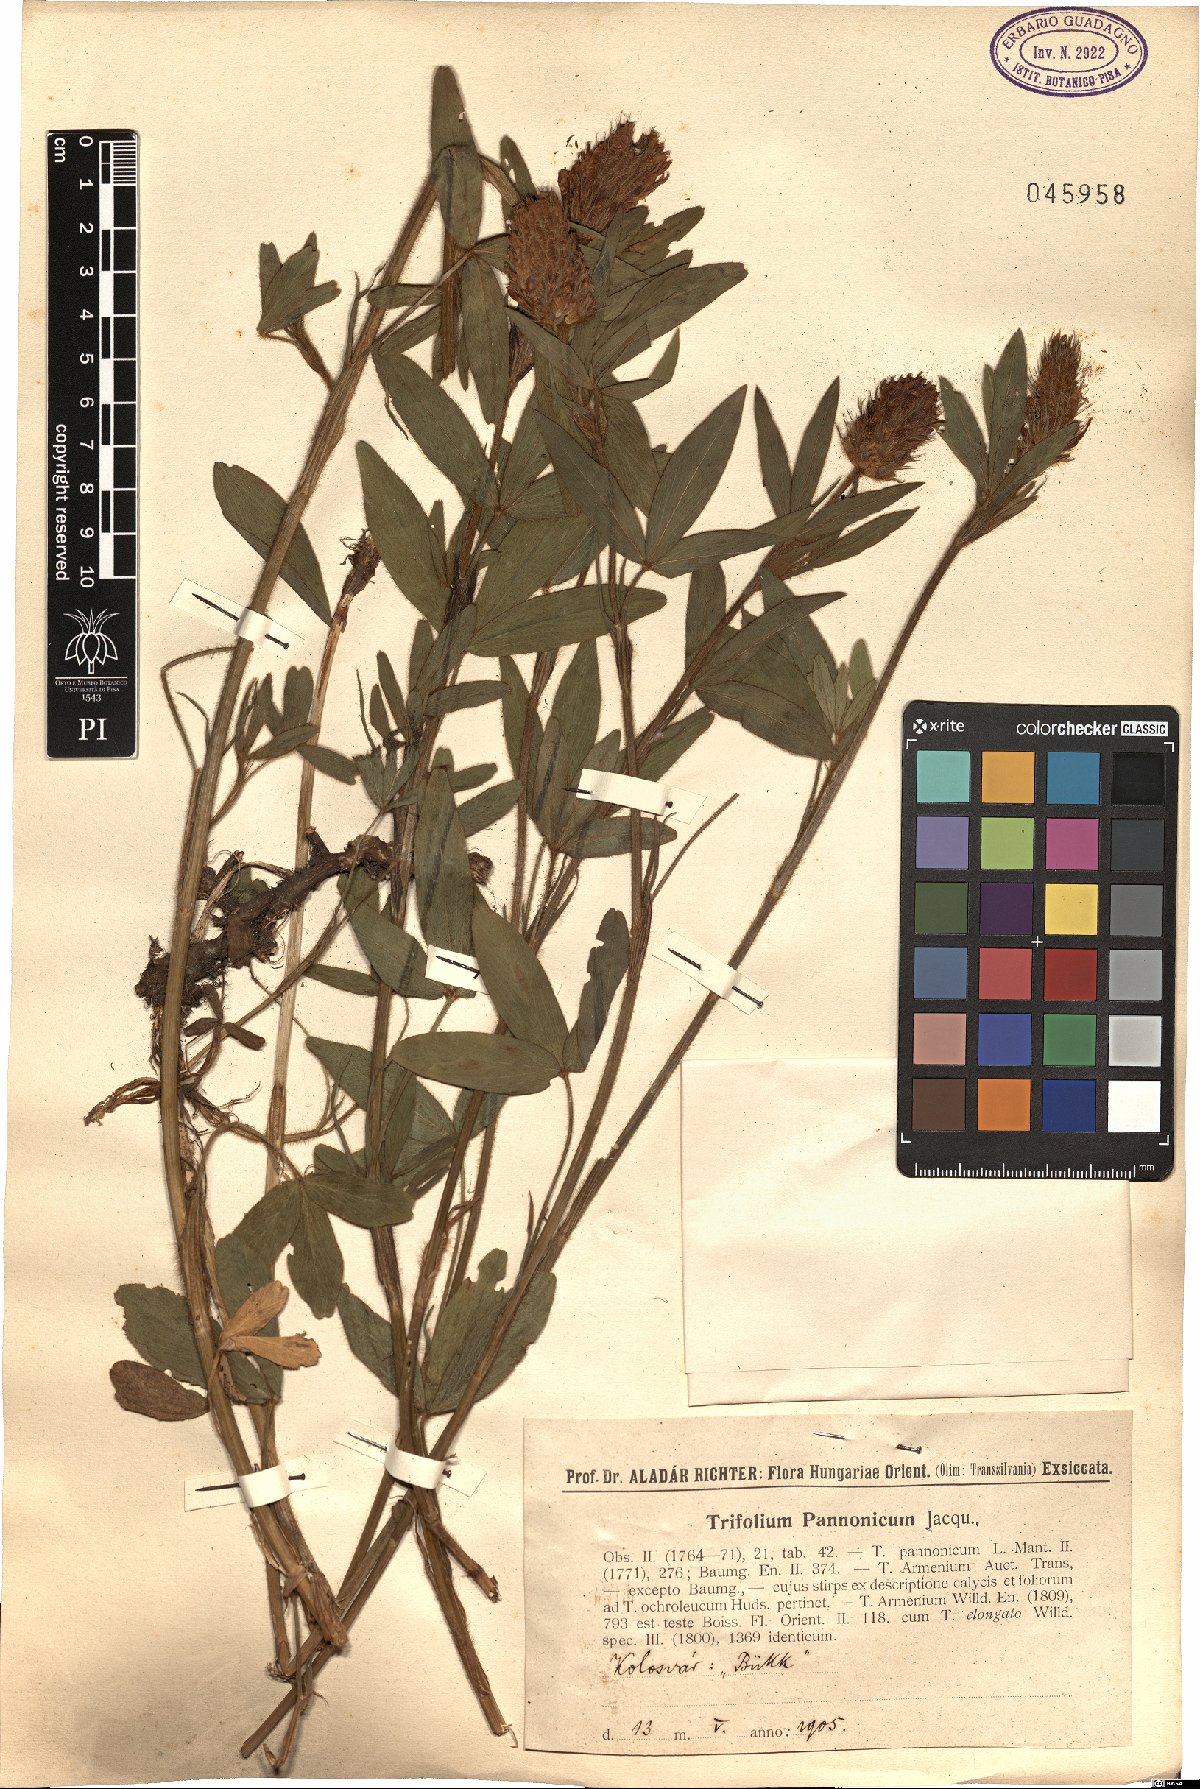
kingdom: Plantae
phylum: Tracheophyta
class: Magnoliopsida
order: Fabales
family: Fabaceae
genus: Trifolium
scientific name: Trifolium pannonicum
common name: Hungarian clover
